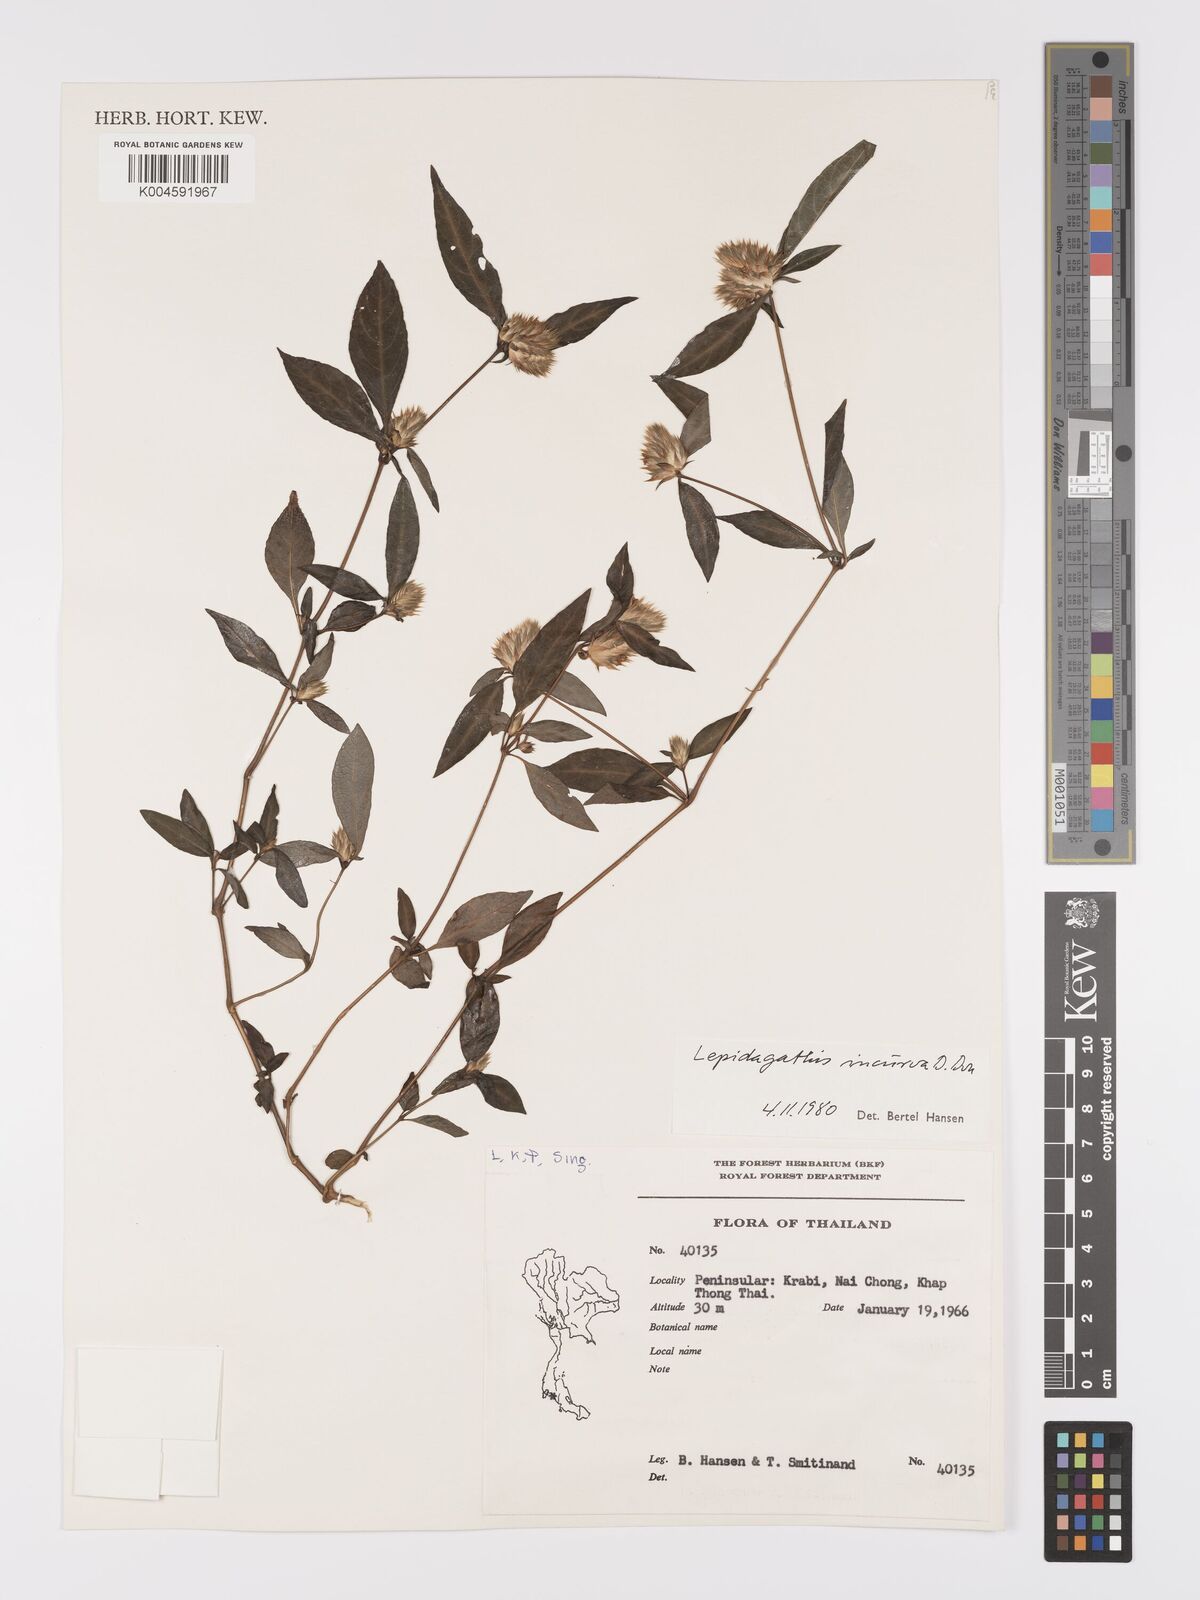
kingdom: Plantae
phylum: Tracheophyta
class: Magnoliopsida
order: Lamiales
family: Acanthaceae
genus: Lepidagathis
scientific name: Lepidagathis incurva
